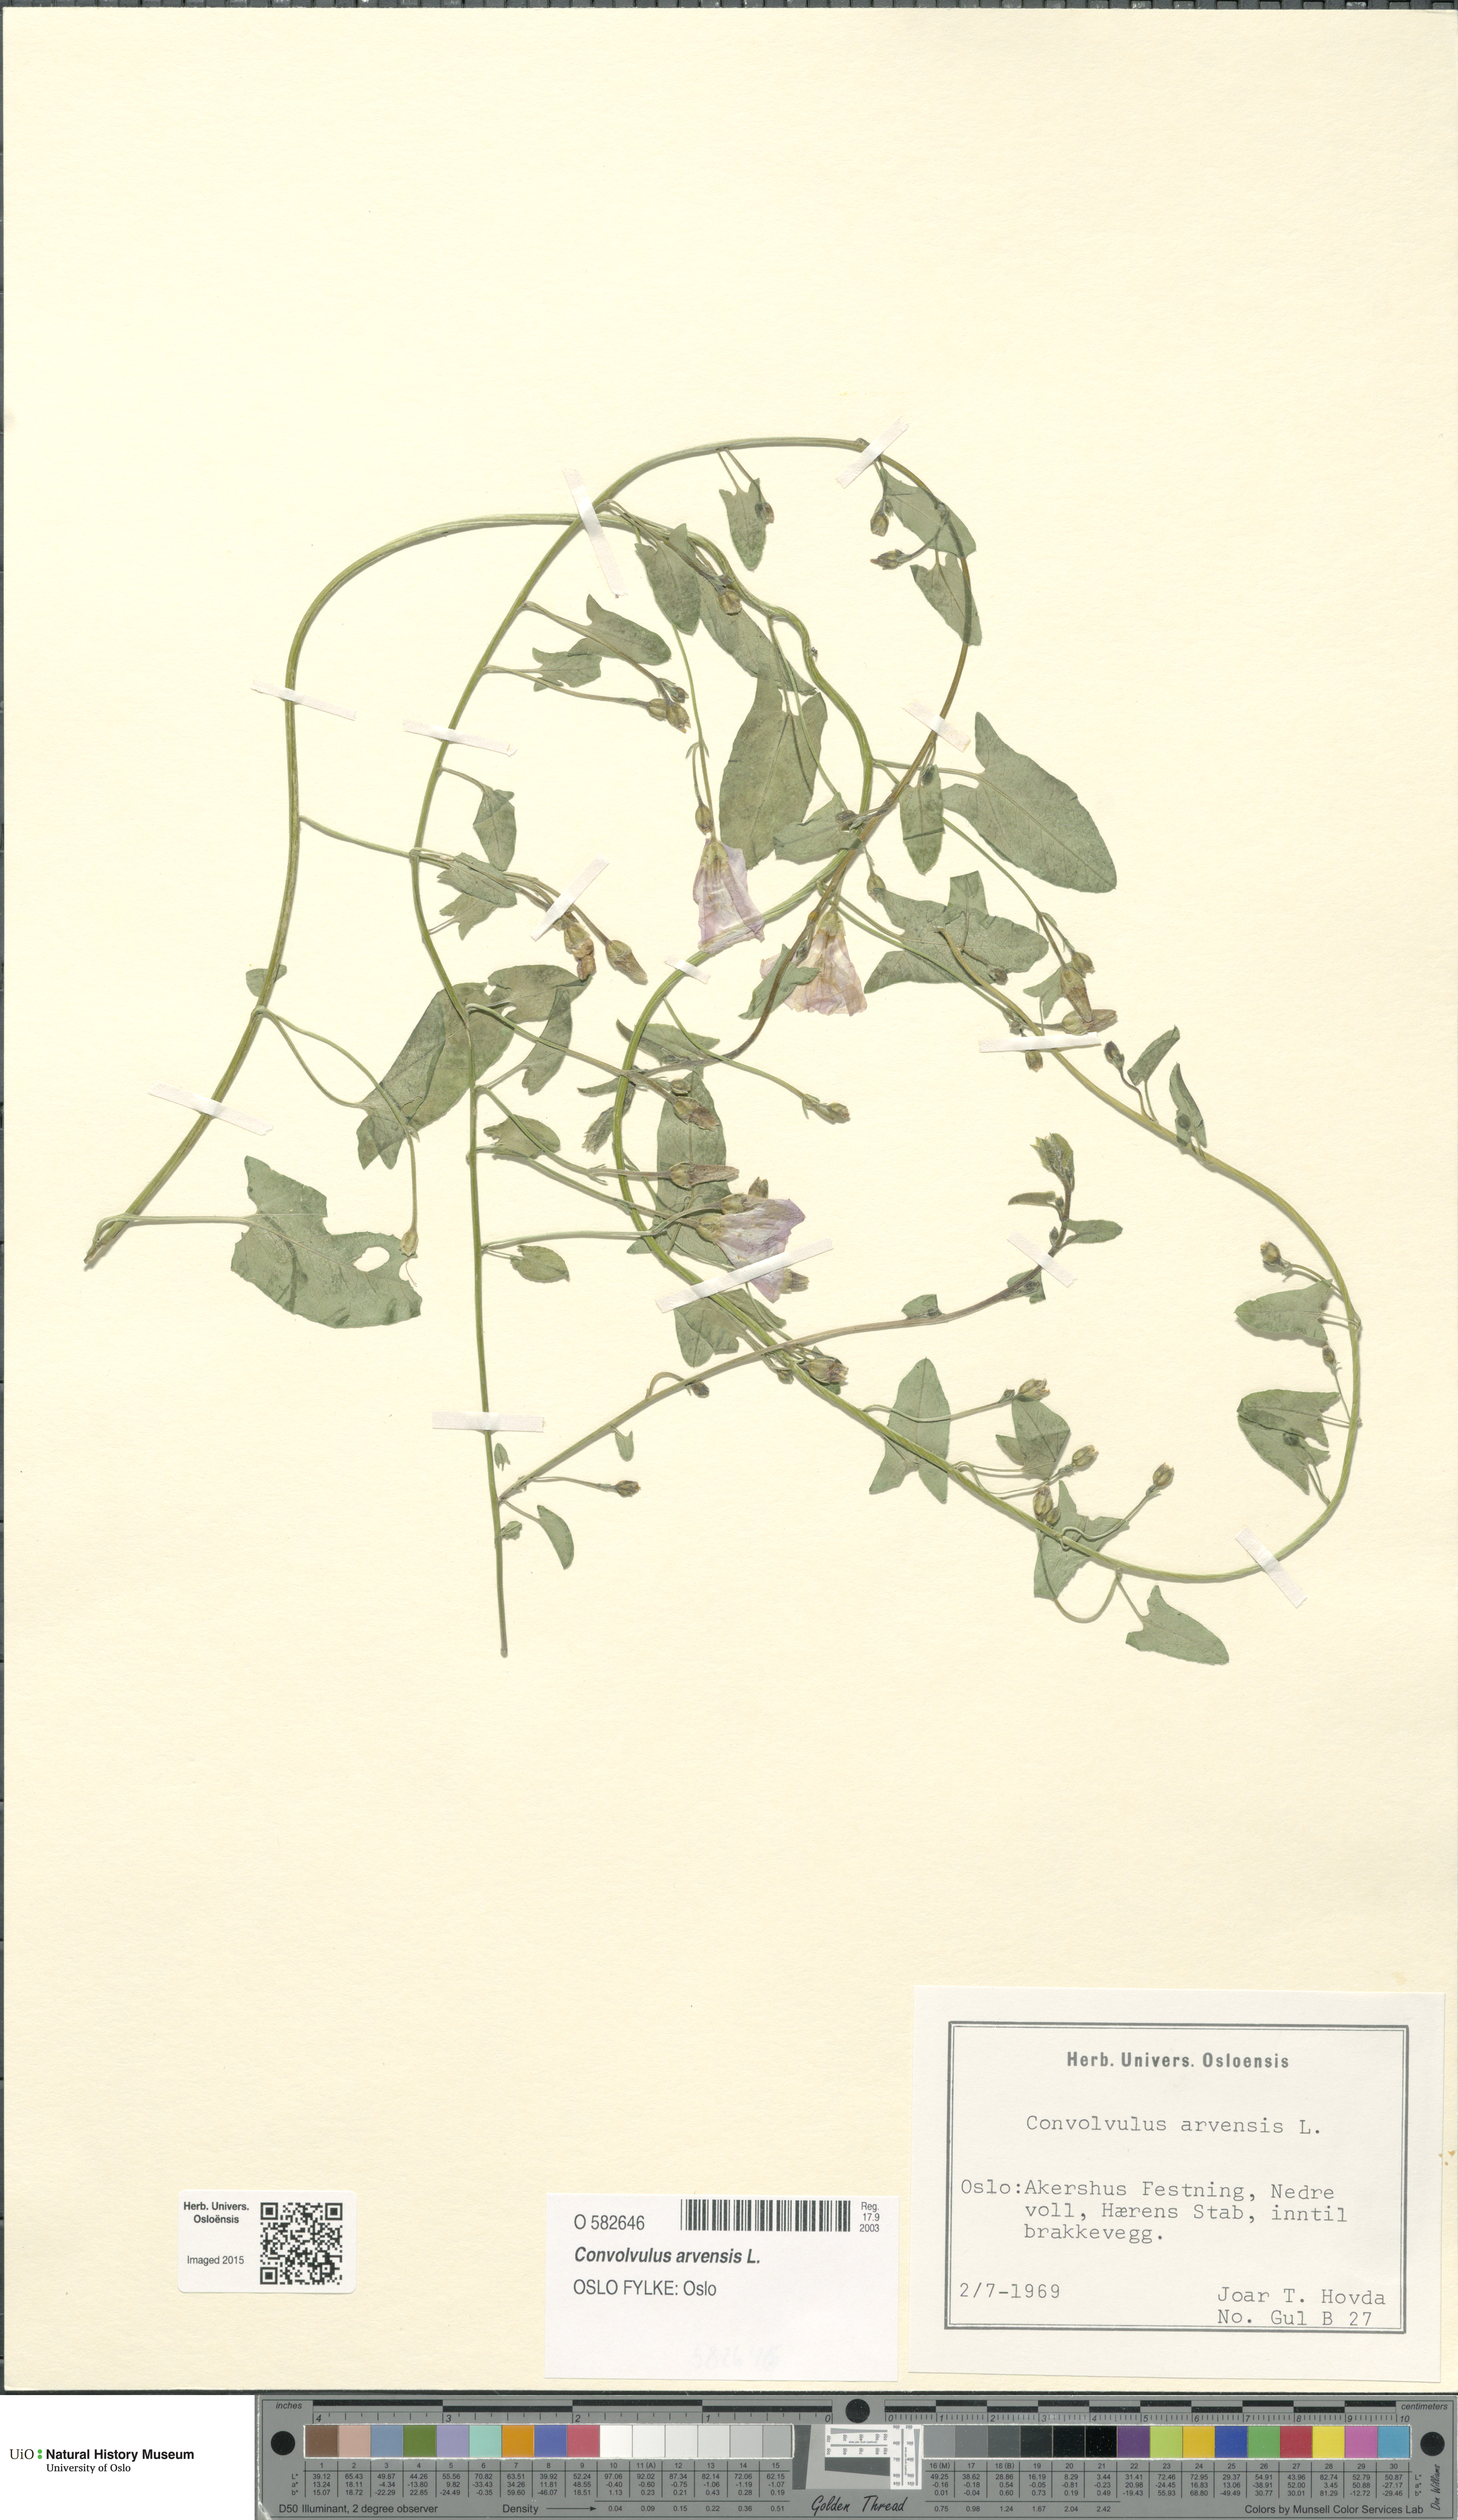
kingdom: Plantae
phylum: Tracheophyta
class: Magnoliopsida
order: Solanales
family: Convolvulaceae
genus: Convolvulus
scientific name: Convolvulus arvensis
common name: Field bindweed
